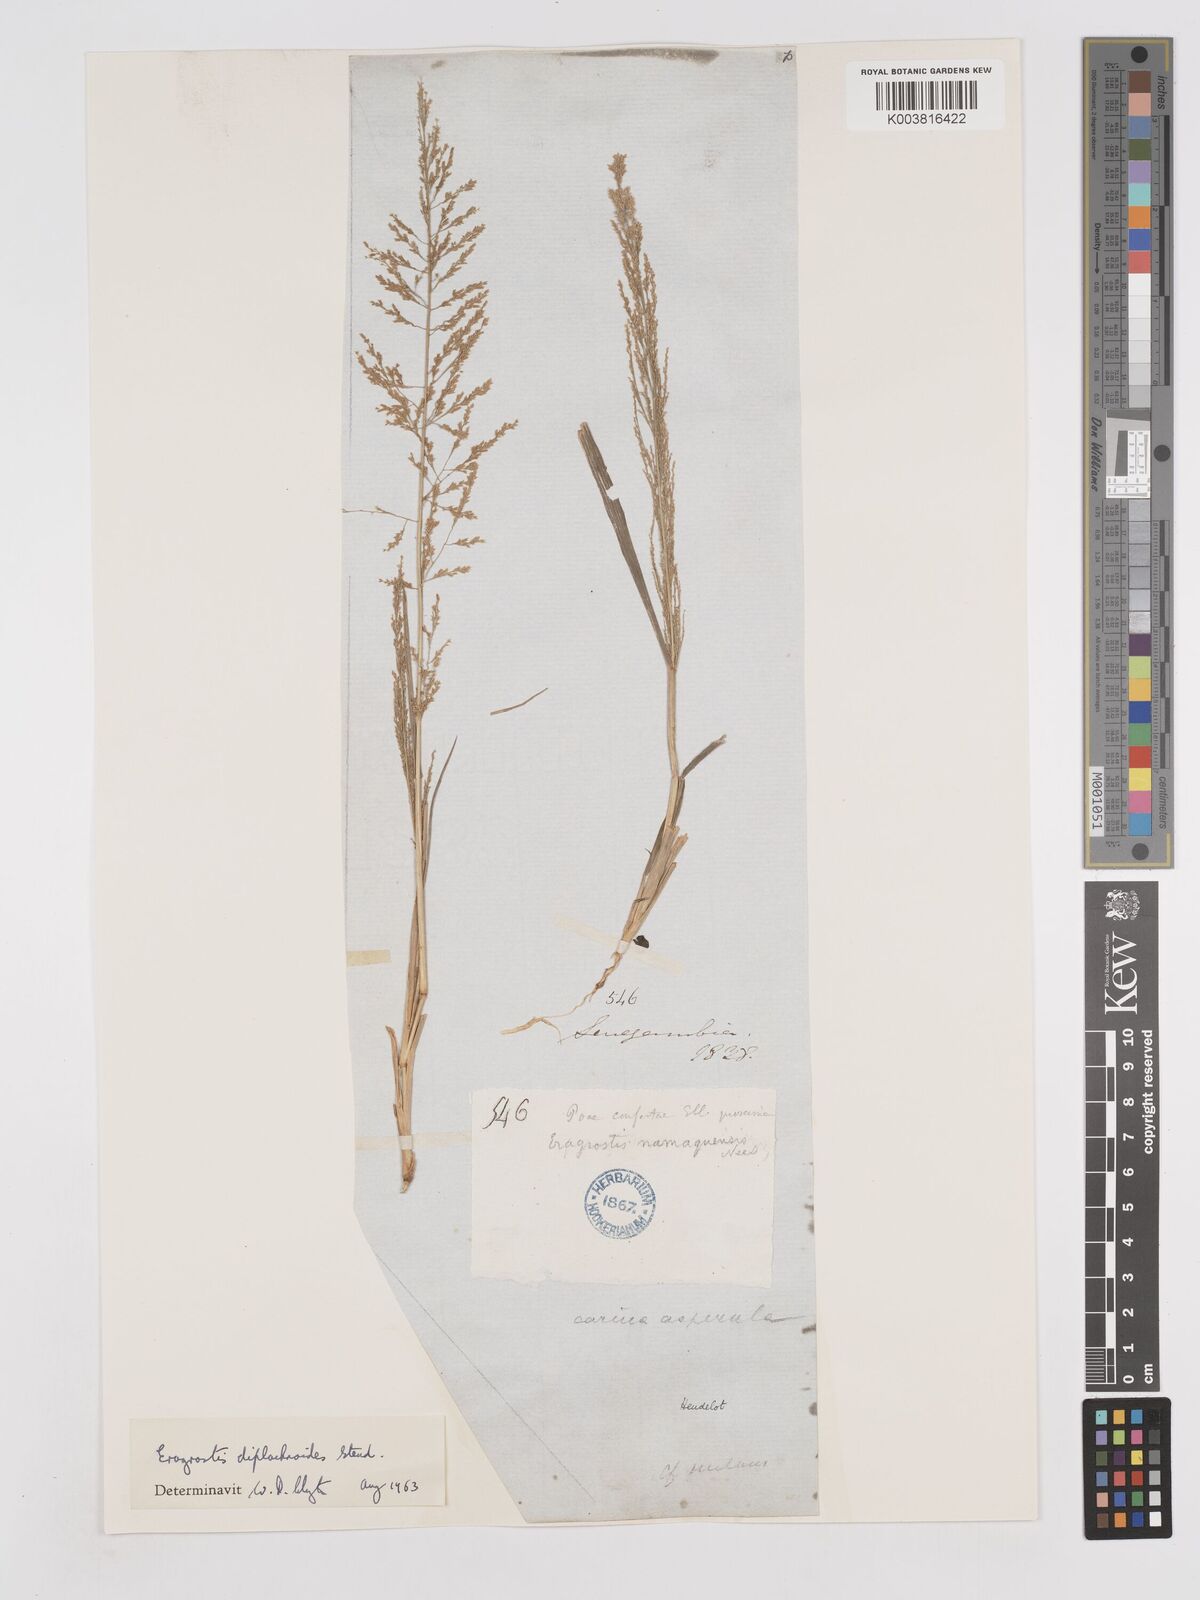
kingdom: Plantae
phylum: Tracheophyta
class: Liliopsida
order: Poales
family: Poaceae
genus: Eragrostis
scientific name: Eragrostis japonica
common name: Pond lovegrass
